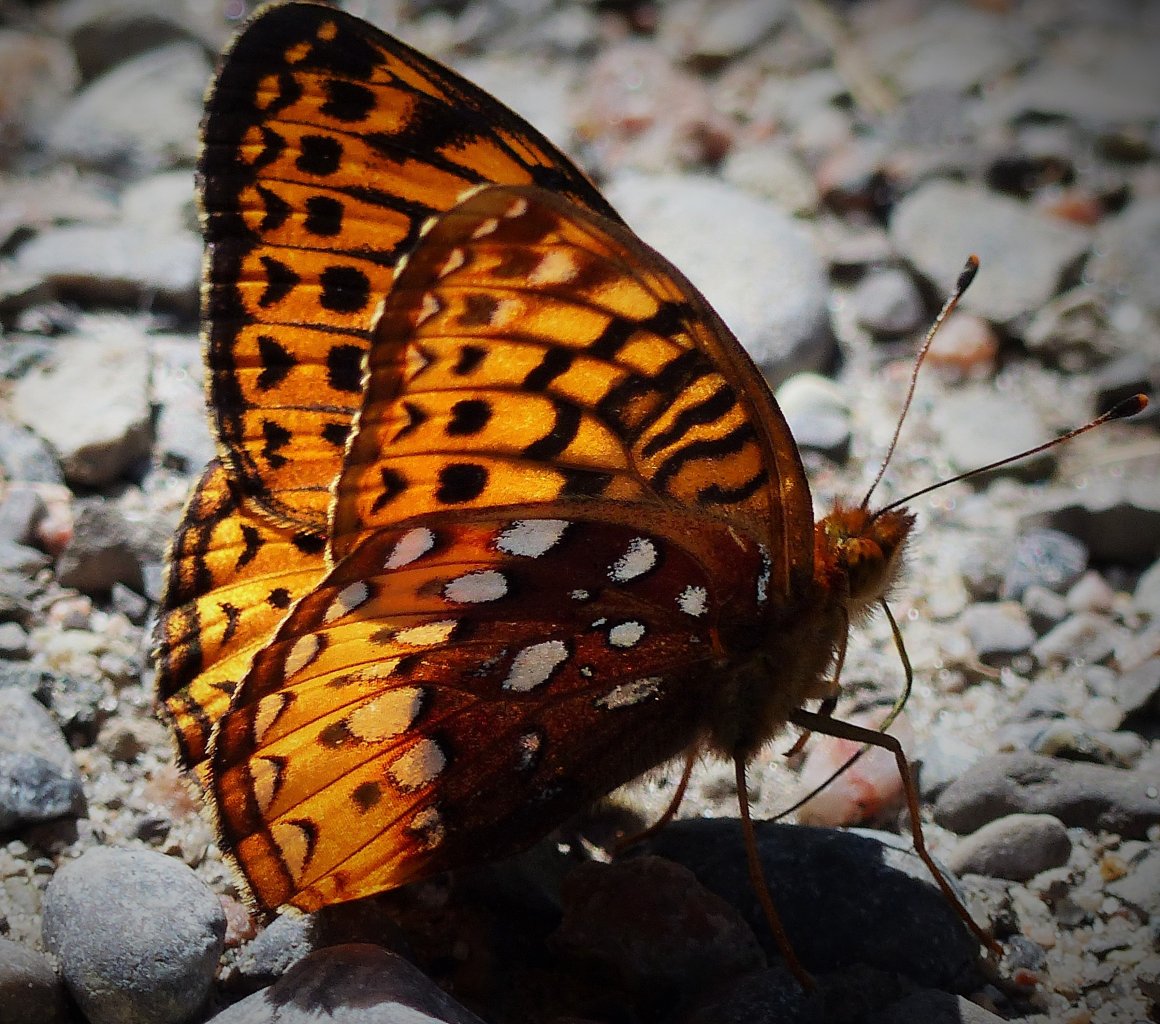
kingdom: Animalia
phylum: Arthropoda
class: Insecta
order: Lepidoptera
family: Nymphalidae
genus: Speyeria
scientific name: Speyeria aphrodite
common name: Aphrodite Fritillary
